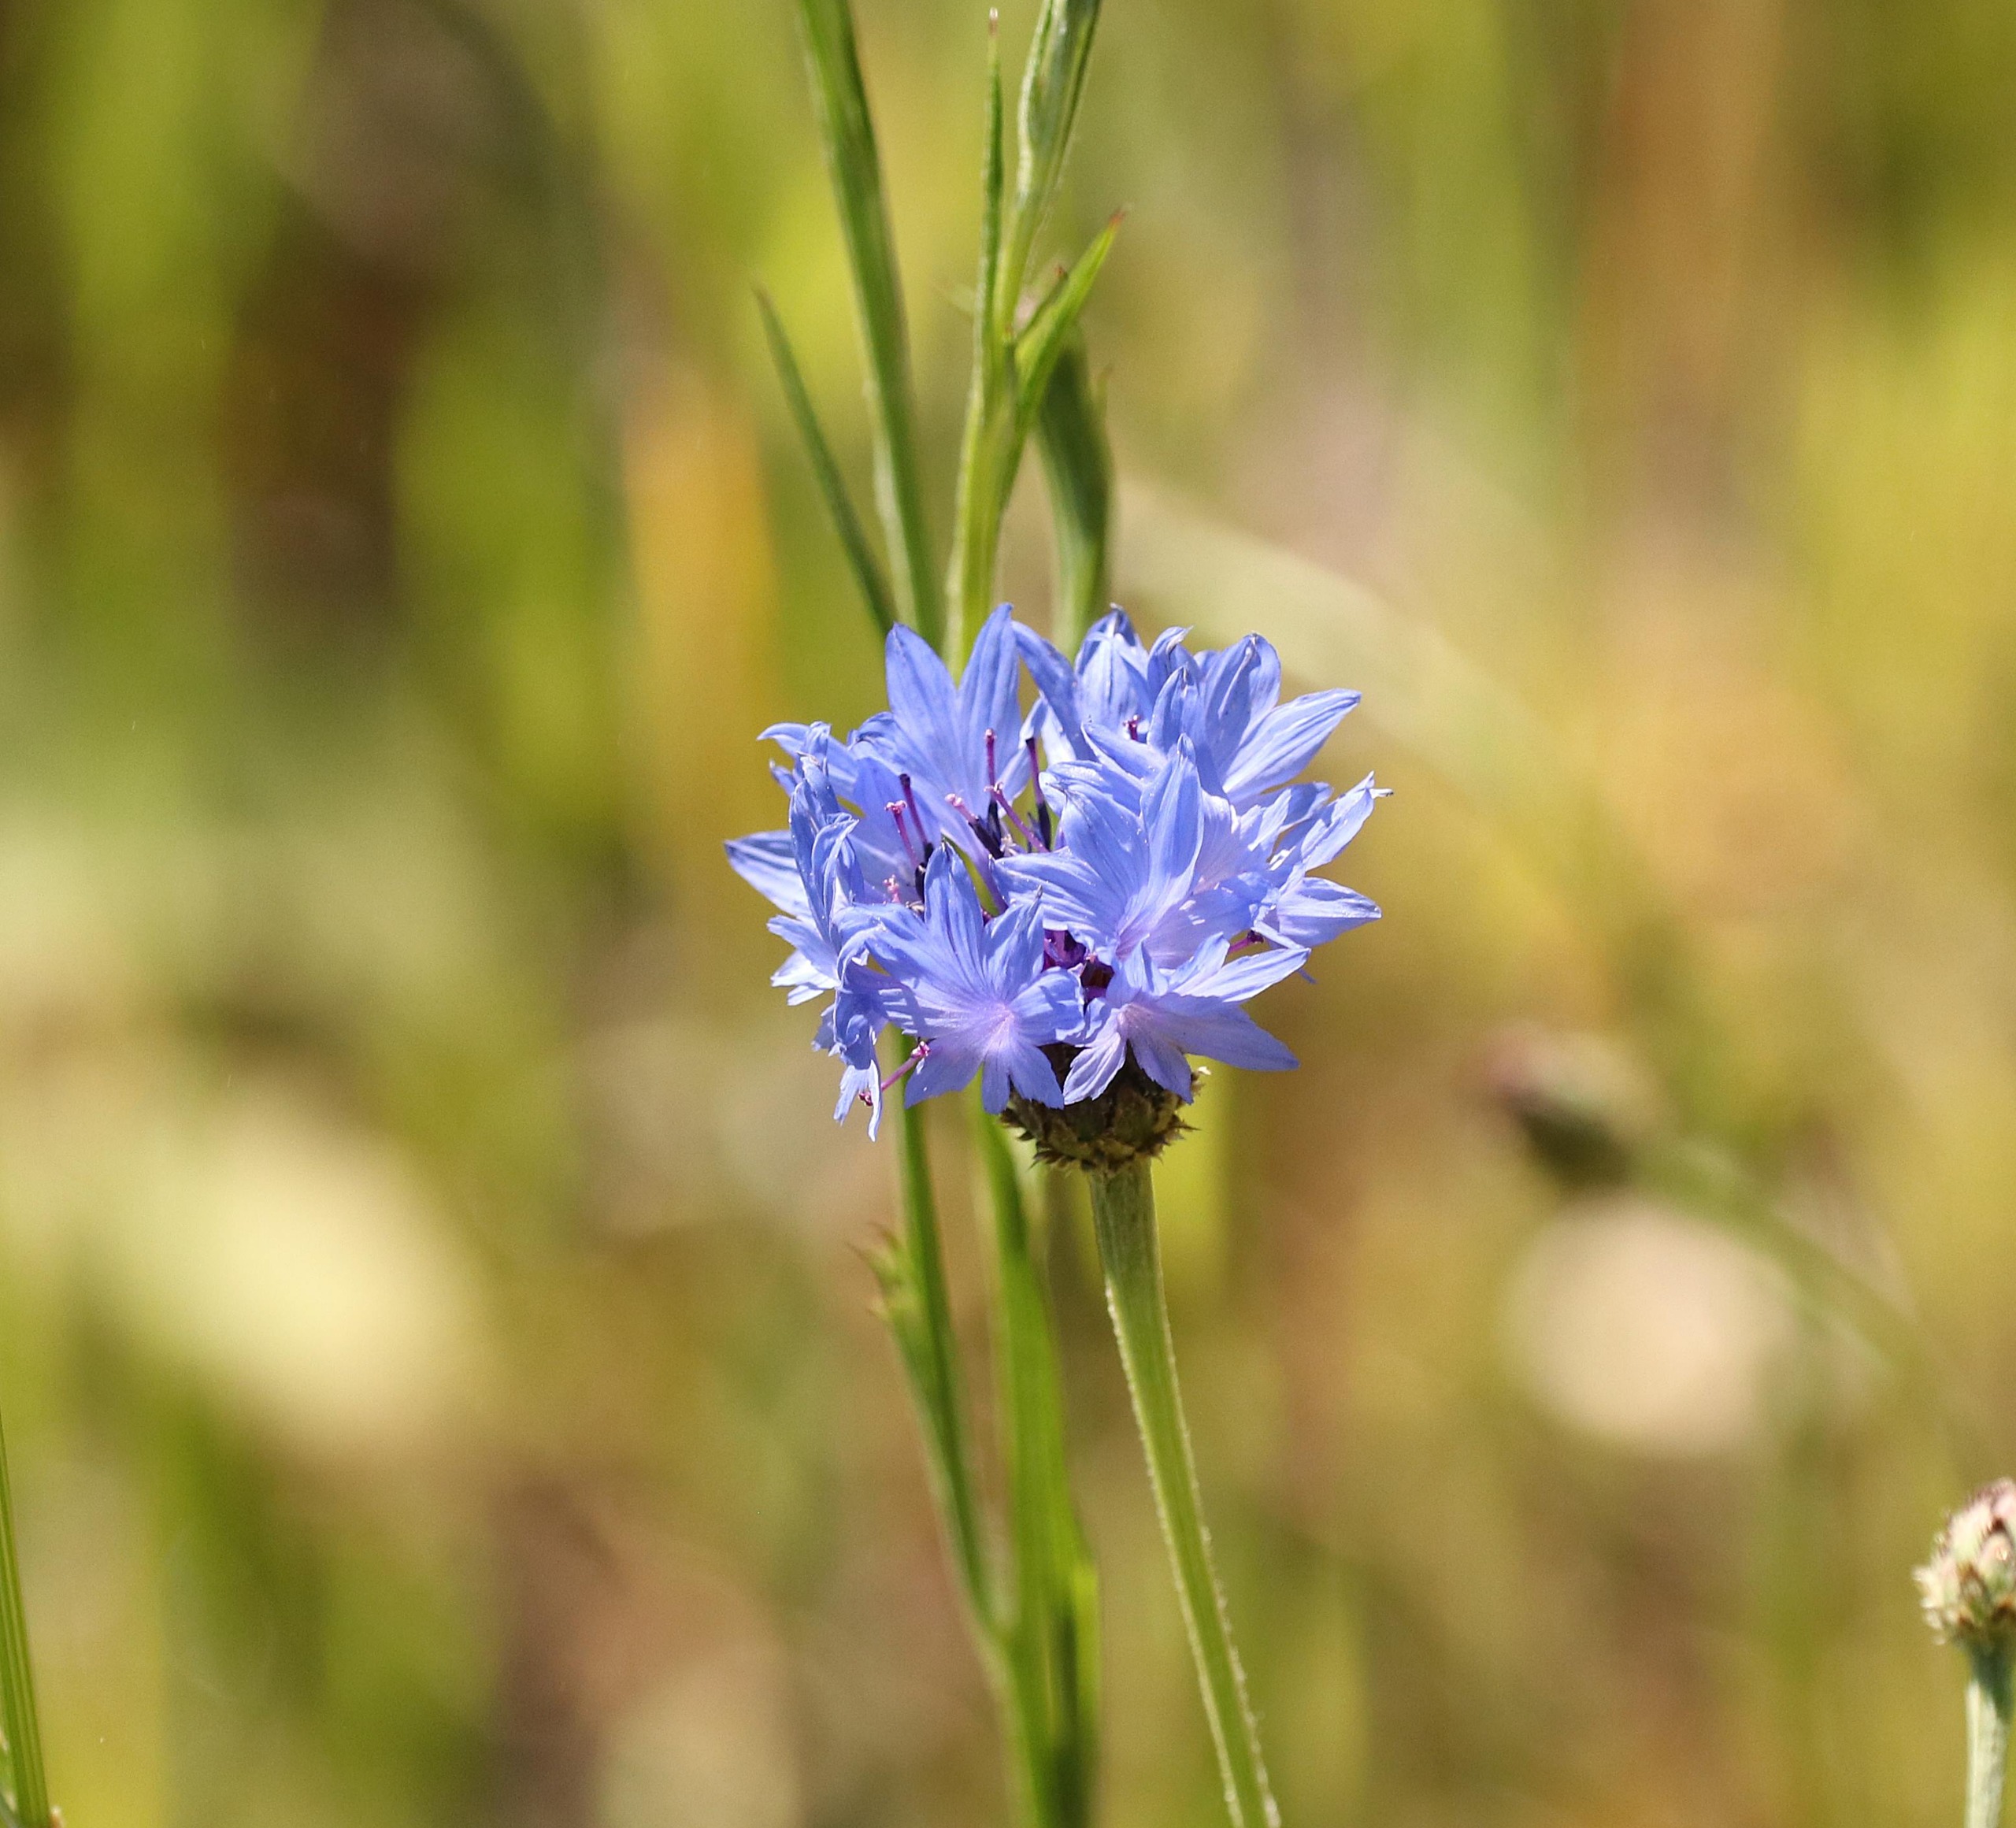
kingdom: Plantae
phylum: Tracheophyta
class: Magnoliopsida
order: Asterales
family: Asteraceae
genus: Centaurea
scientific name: Centaurea cyanus
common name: Kornblomst
